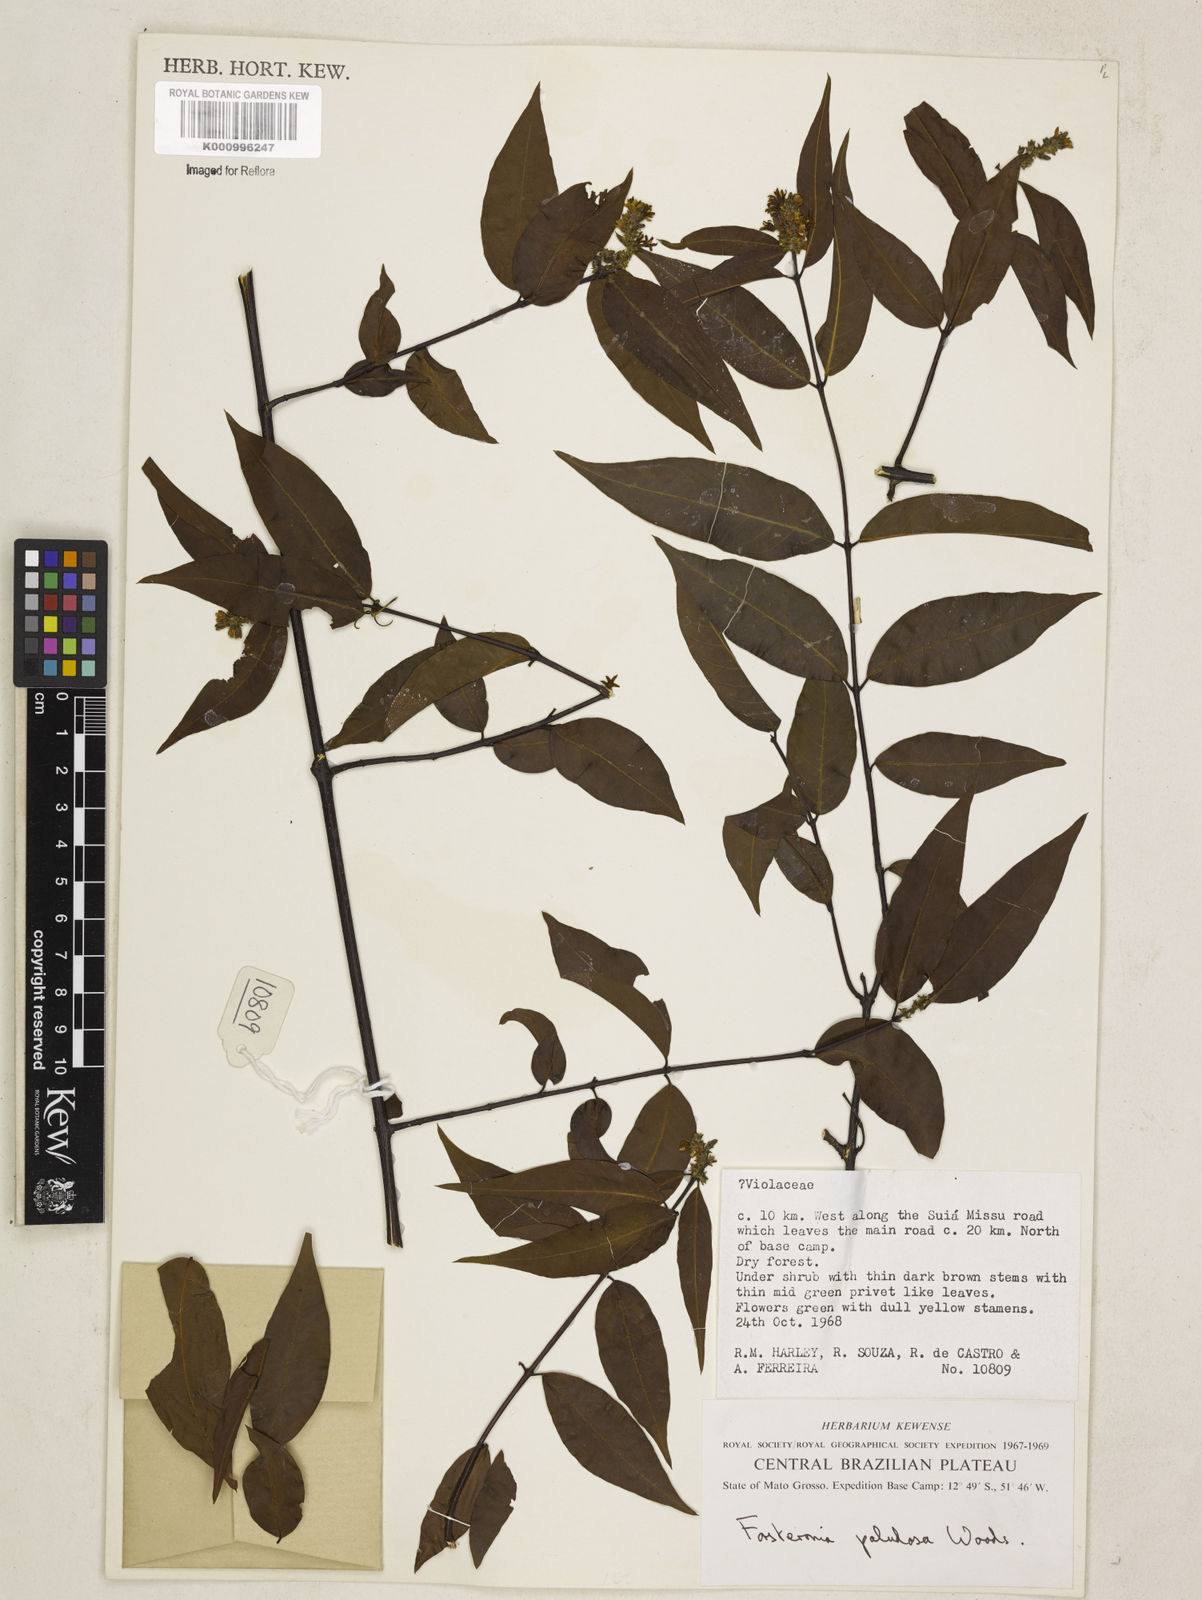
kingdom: Plantae
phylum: Tracheophyta
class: Magnoliopsida
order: Gentianales
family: Apocynaceae
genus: Forsteronia
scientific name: Forsteronia paludosa
